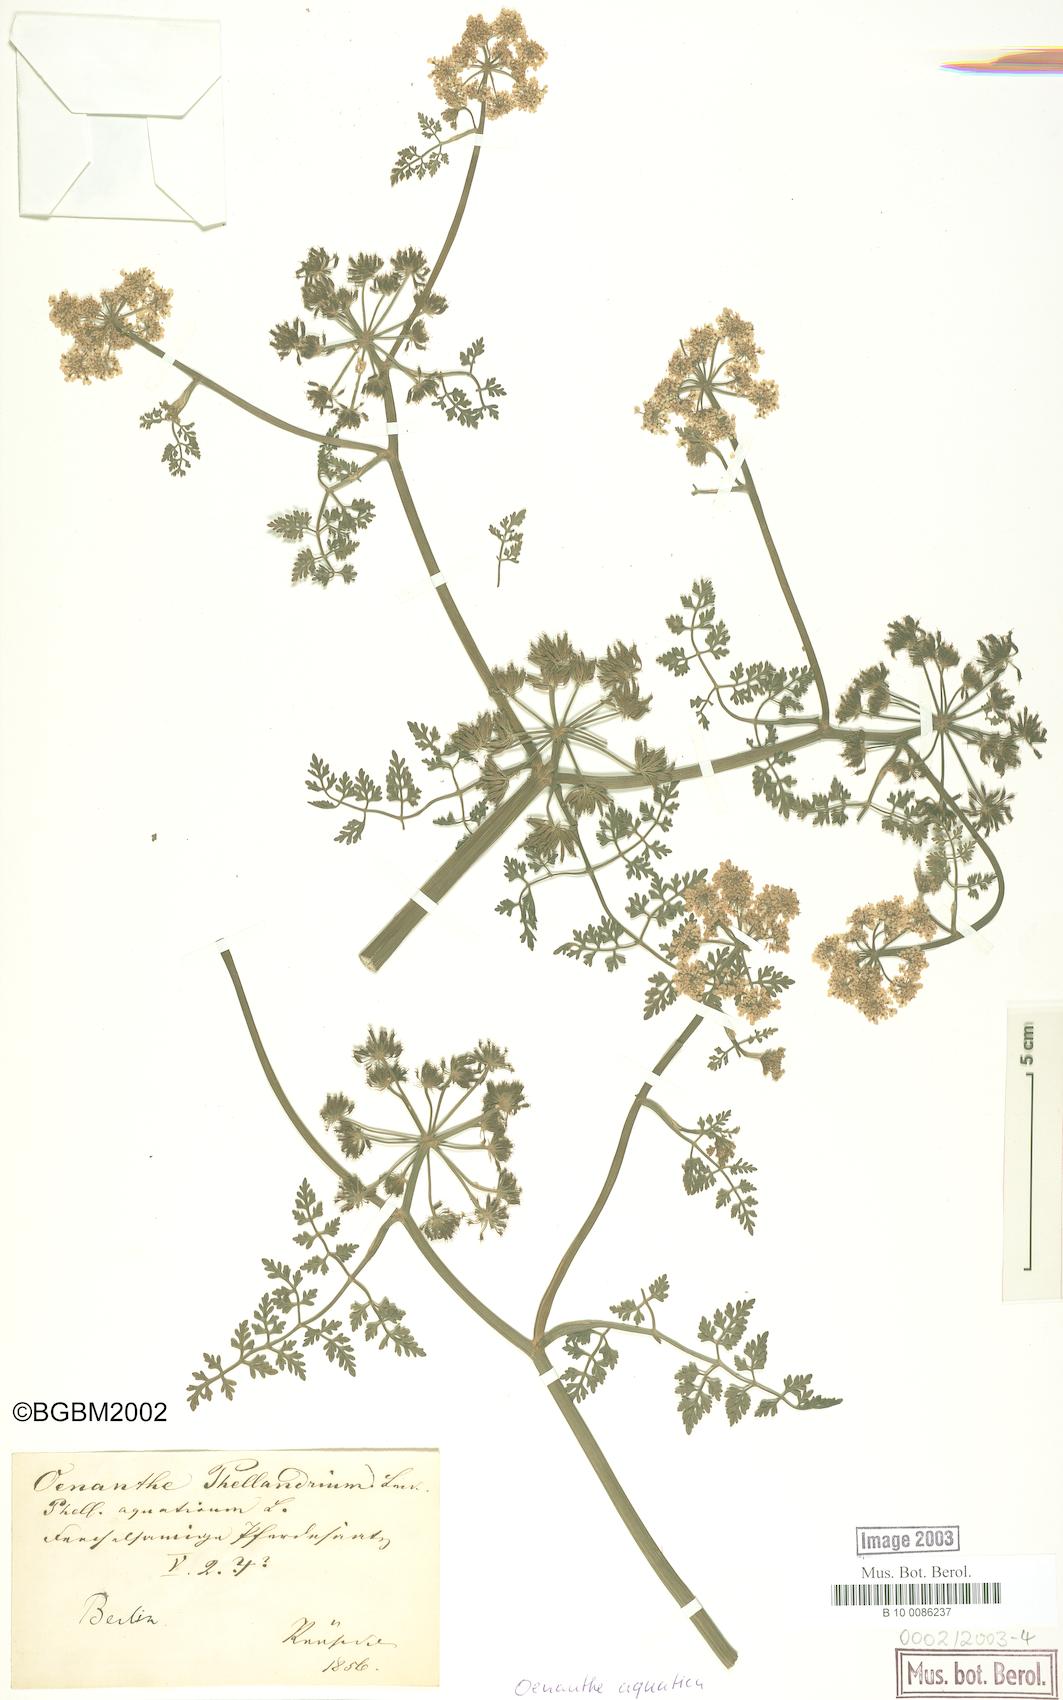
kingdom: Plantae
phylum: Tracheophyta
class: Magnoliopsida
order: Apiales
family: Apiaceae
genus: Oenanthe
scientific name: Oenanthe aquatica
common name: Fine-leaved water-dropwort
